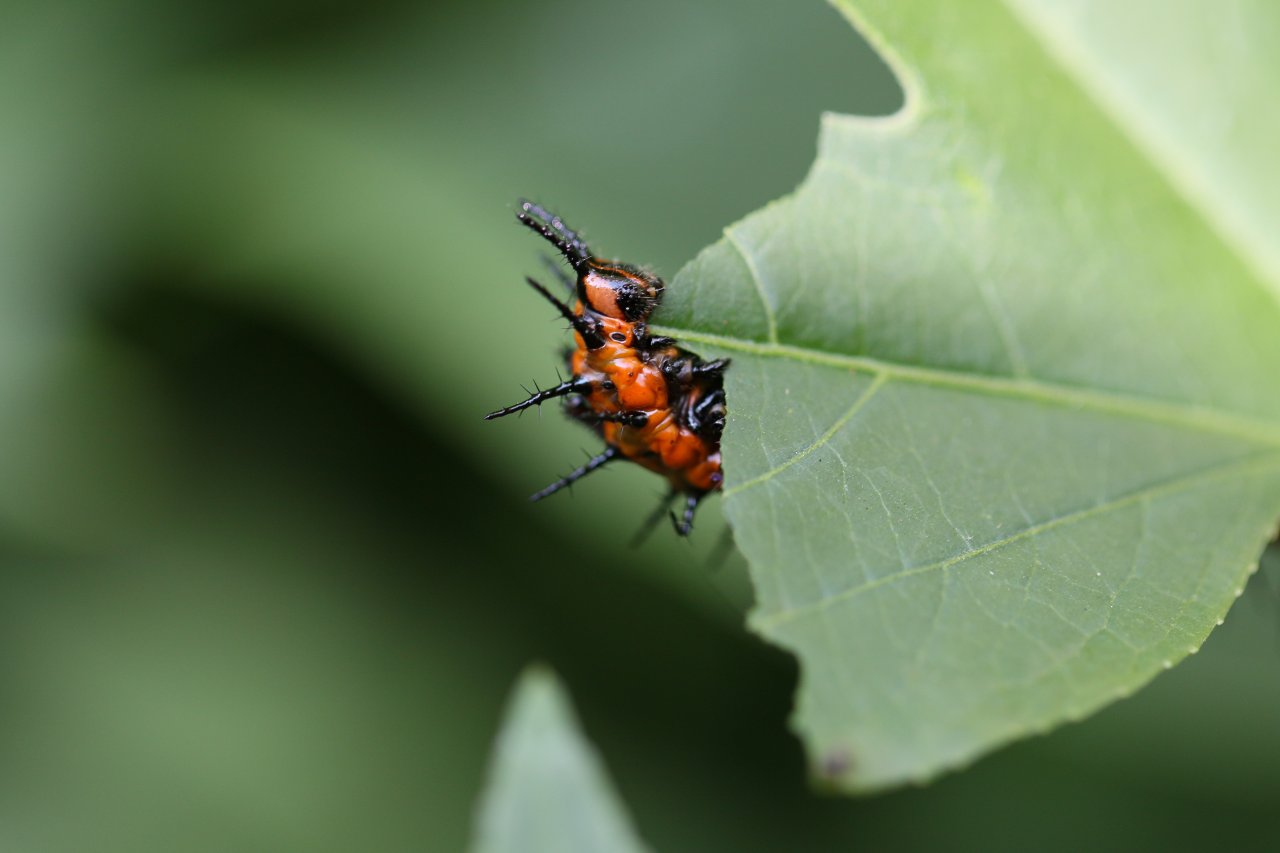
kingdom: Animalia
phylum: Arthropoda
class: Insecta
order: Lepidoptera
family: Nymphalidae
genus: Dione
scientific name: Dione vanillae
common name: Gulf Fritillary
